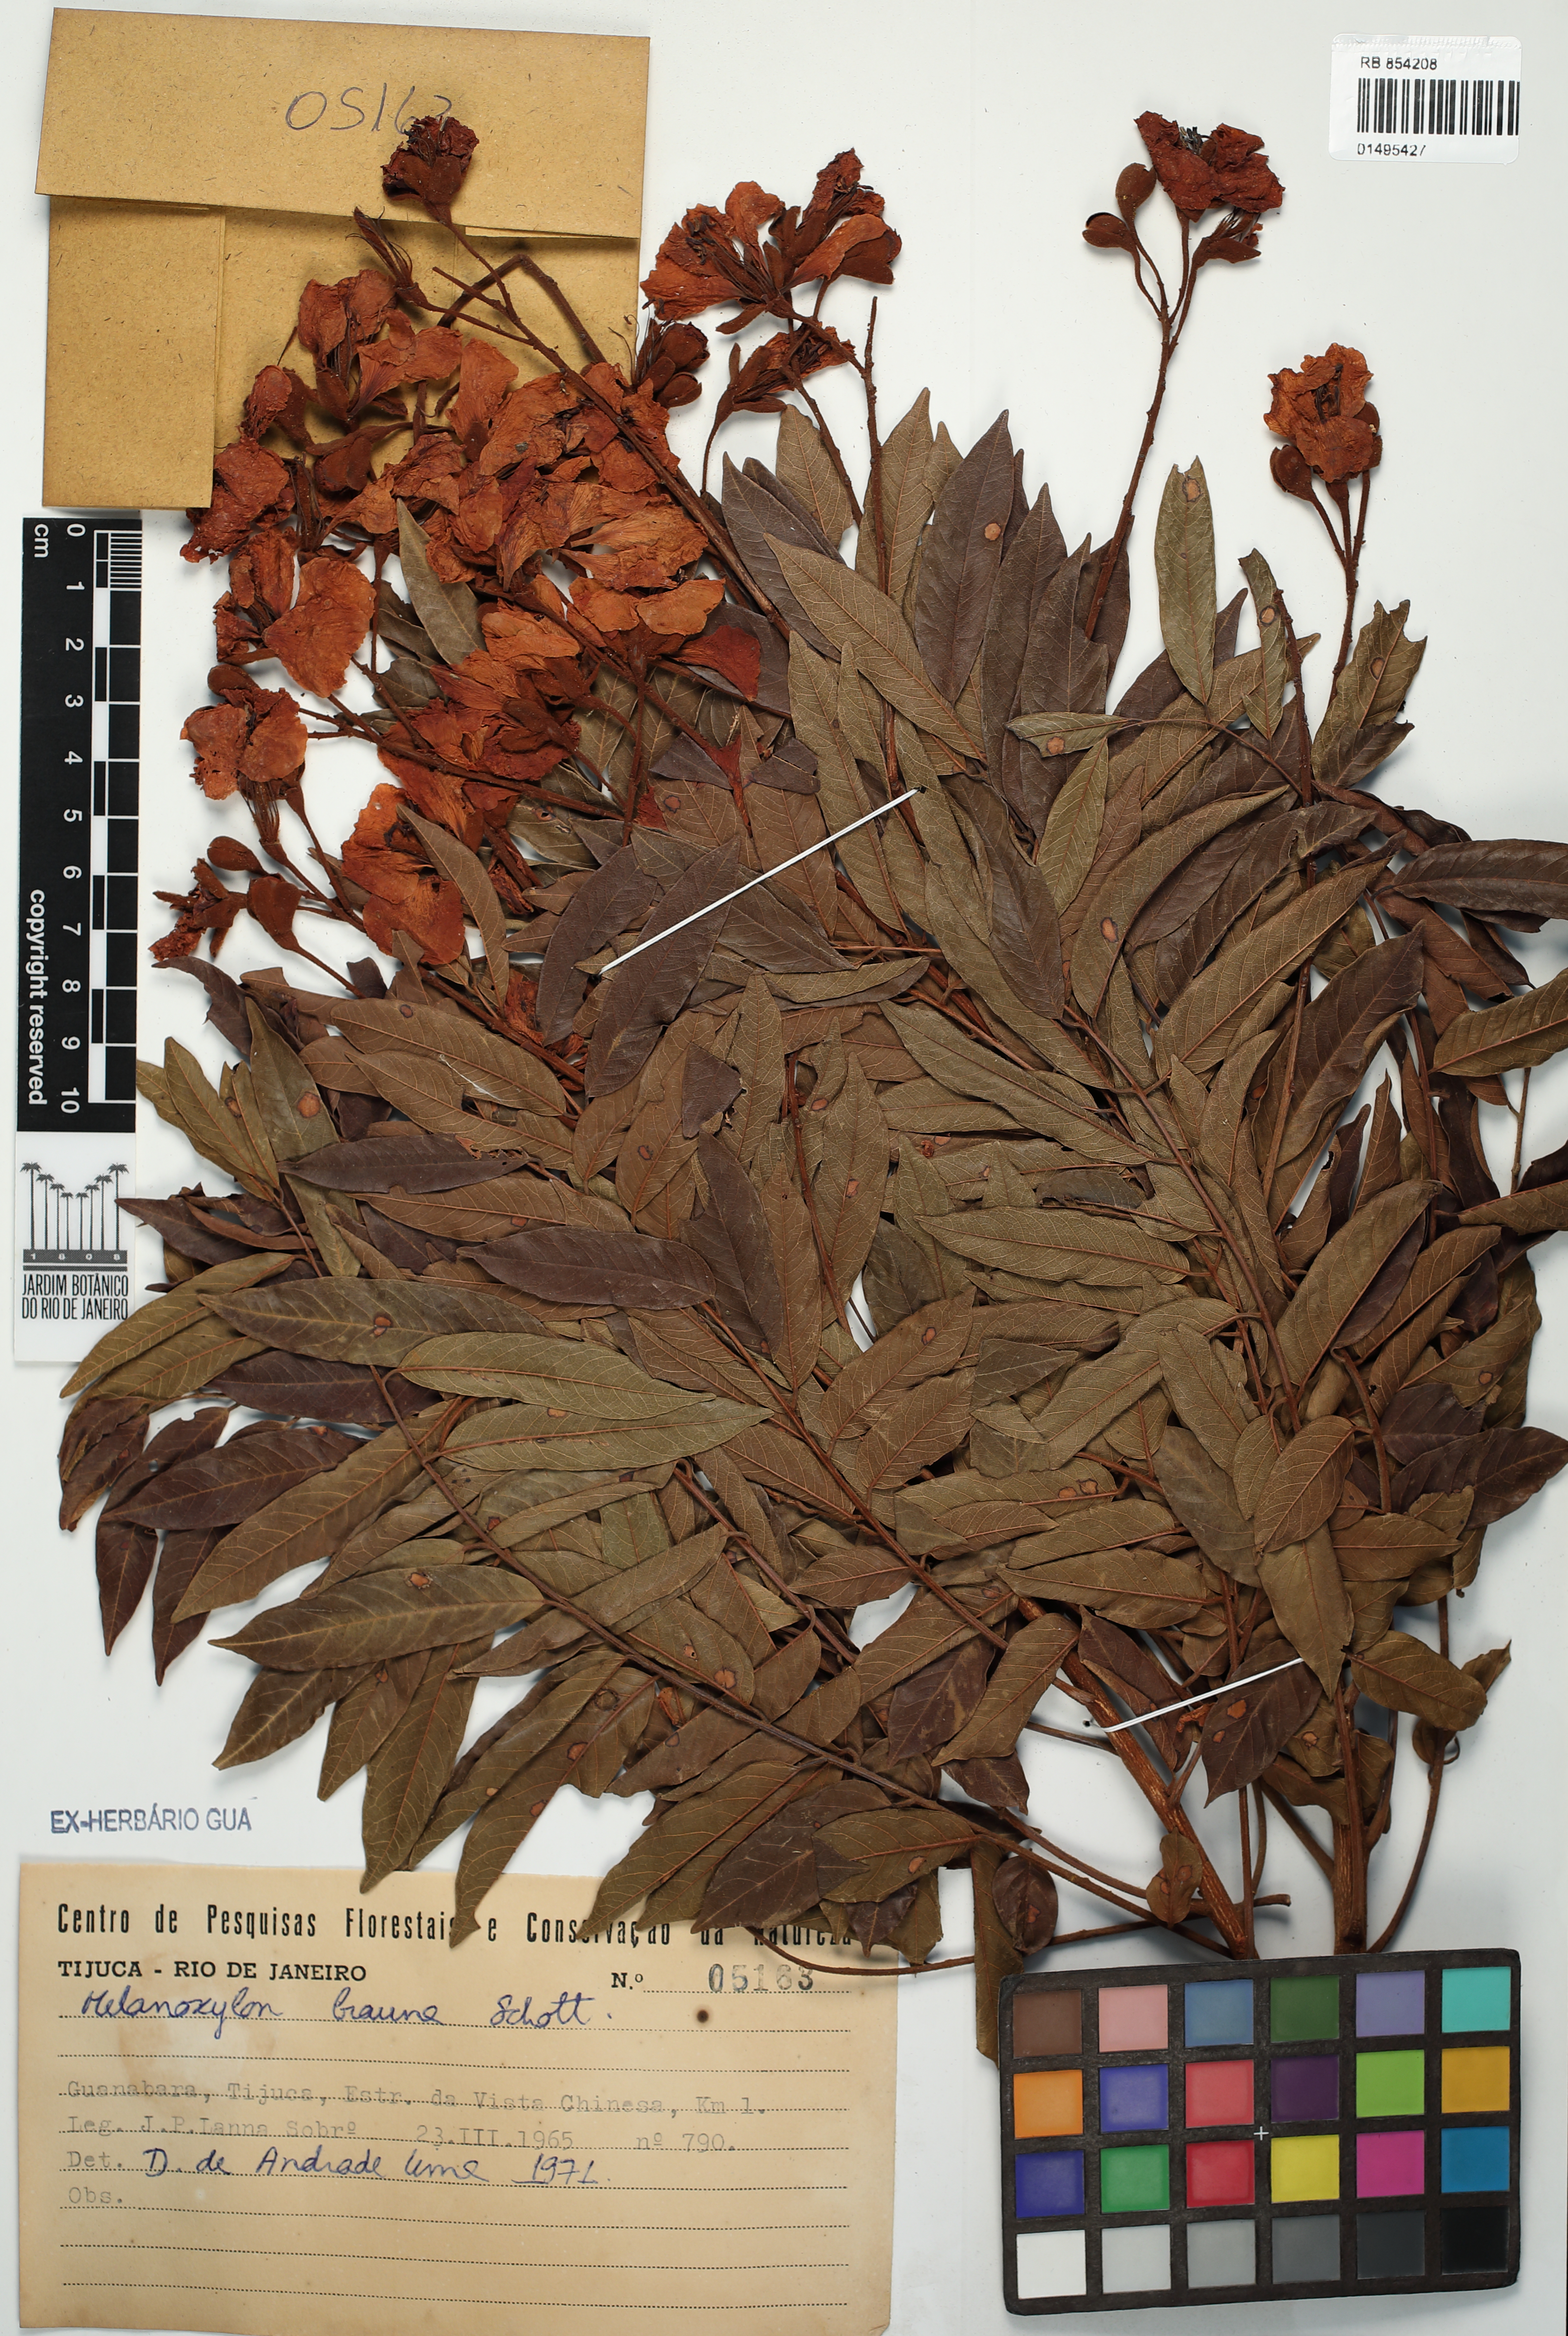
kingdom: Plantae
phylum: Tracheophyta
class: Magnoliopsida
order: Fabales
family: Fabaceae
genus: Melanoxylon
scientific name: Melanoxylon brauna
